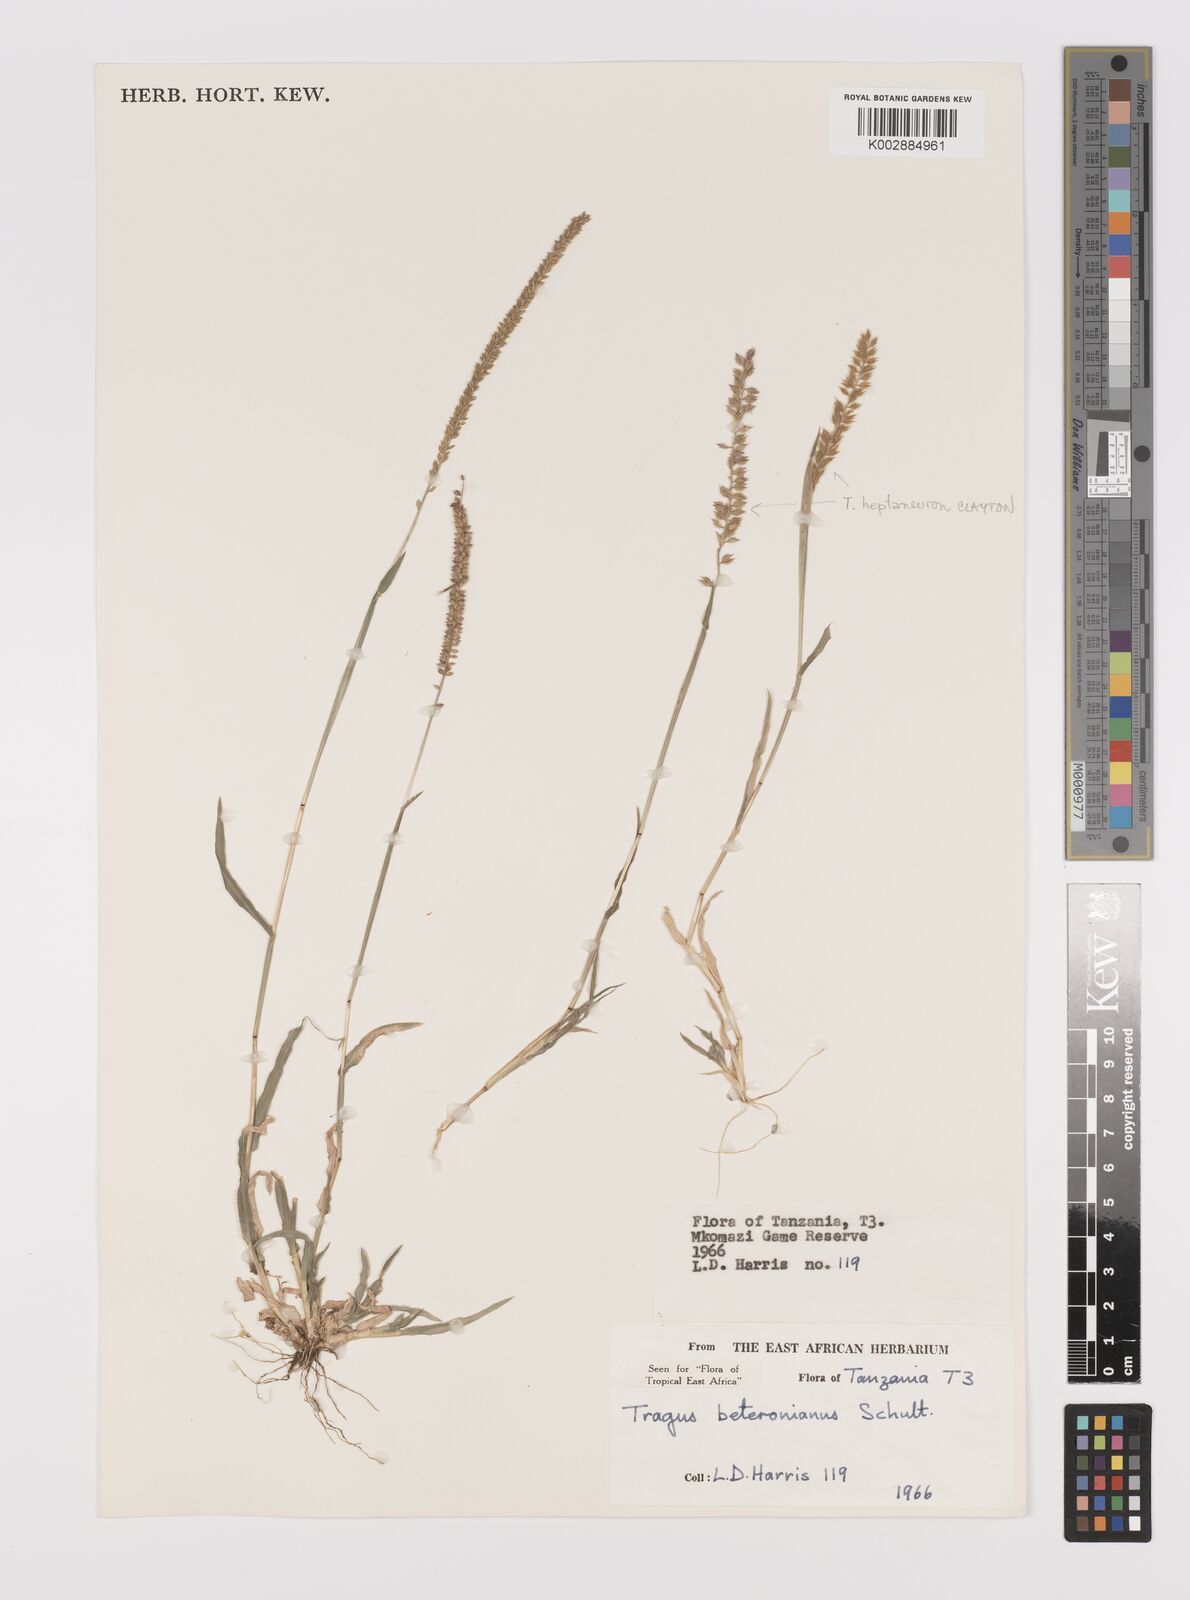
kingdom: Plantae
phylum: Tracheophyta
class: Liliopsida
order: Poales
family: Poaceae
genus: Tragus
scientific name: Tragus berteronianus
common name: African bur-grass
